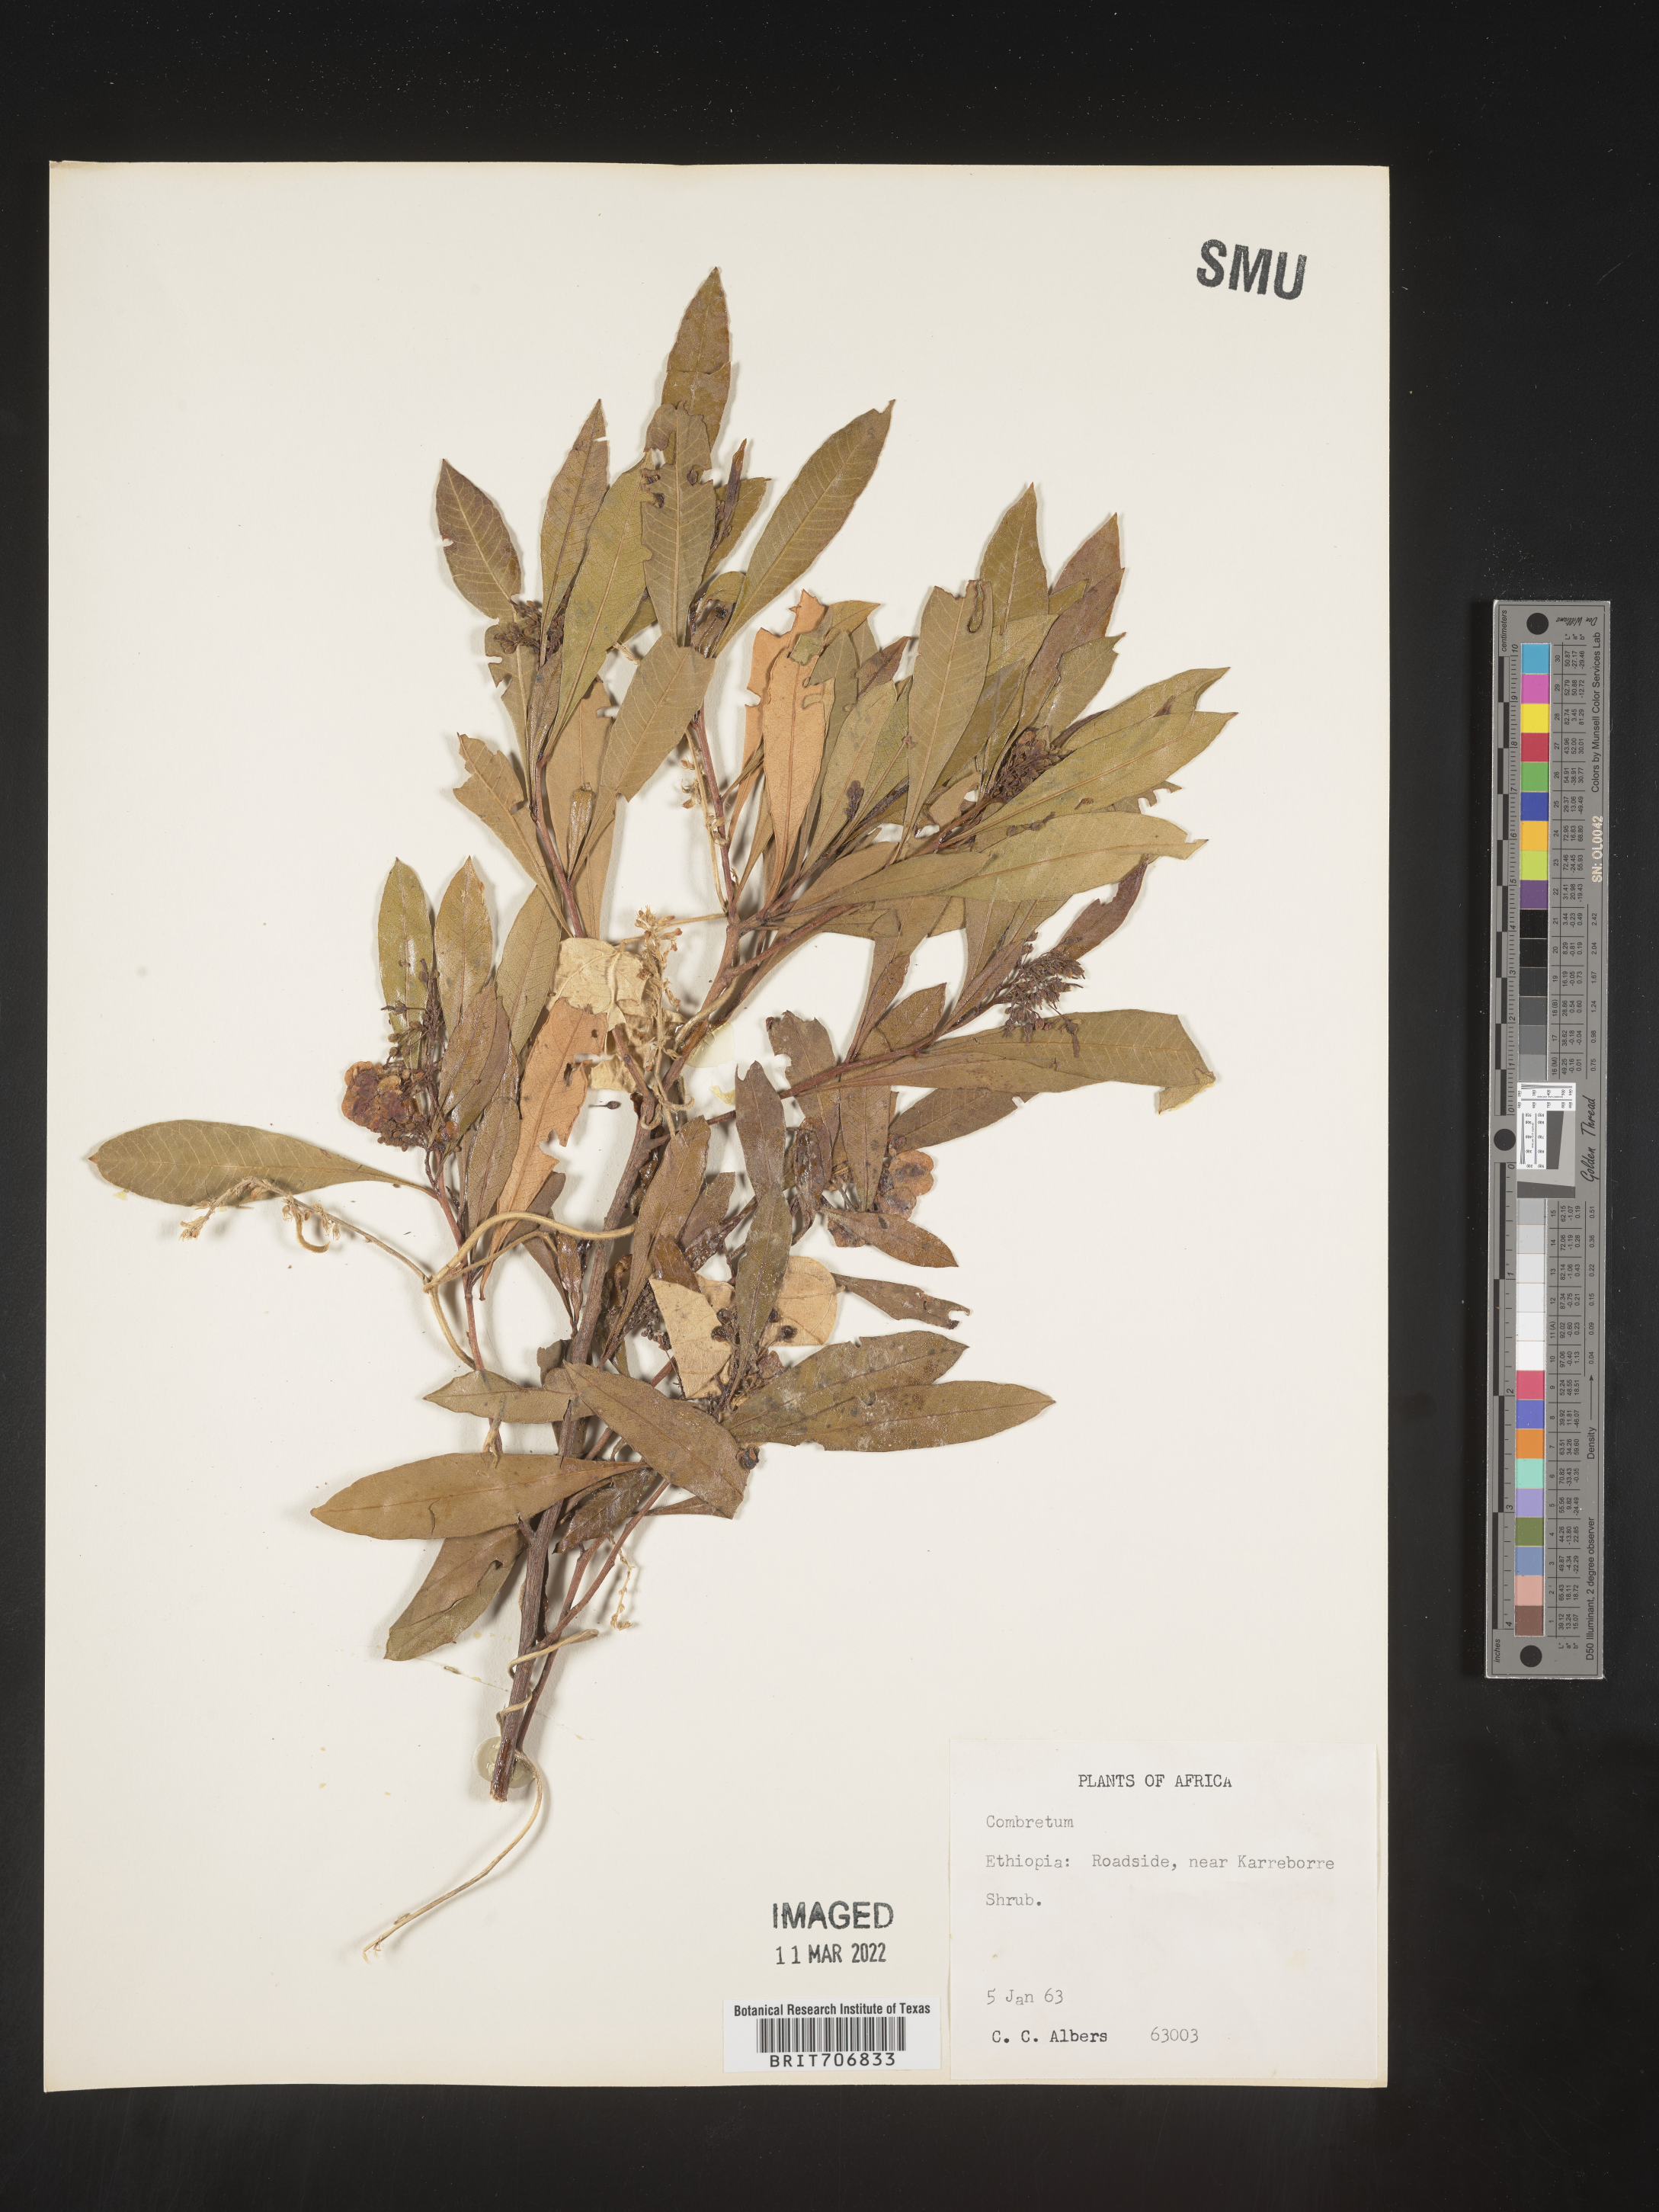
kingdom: Plantae
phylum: Tracheophyta
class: Magnoliopsida
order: Myrtales
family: Combretaceae
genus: Combretum
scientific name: Combretum
